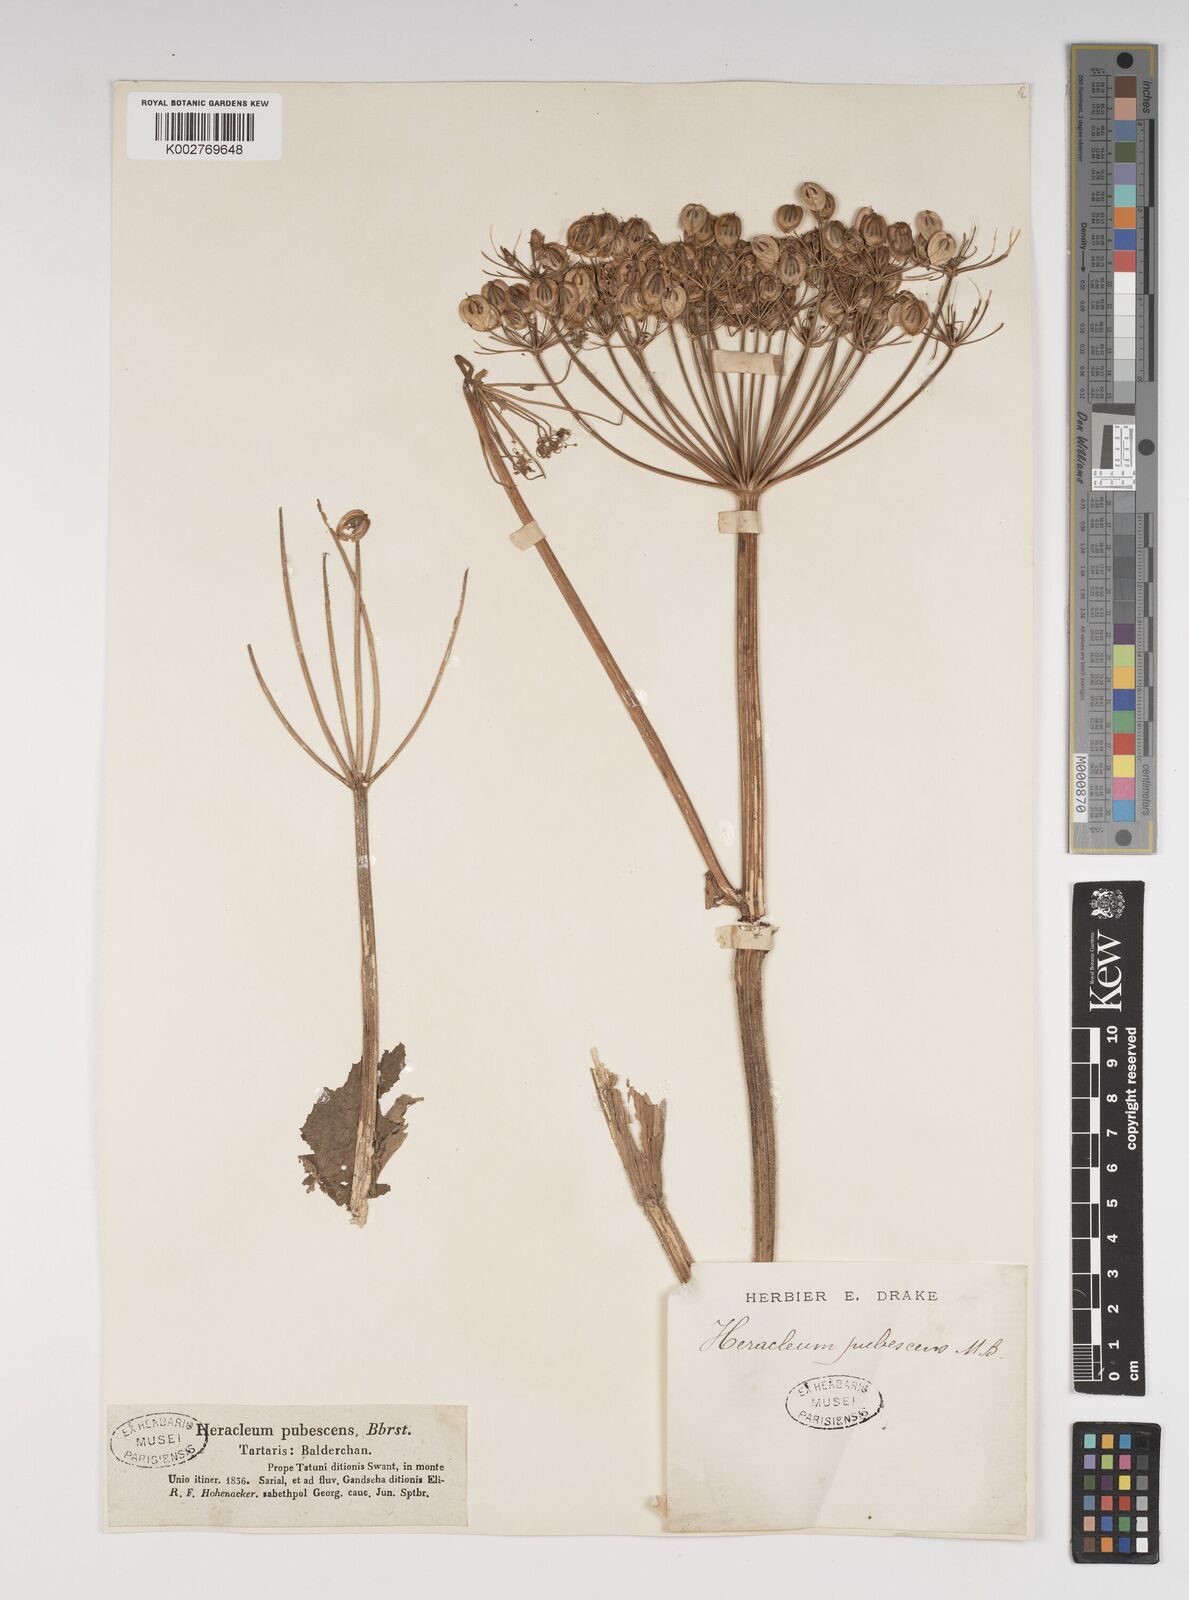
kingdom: Plantae
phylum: Tracheophyta
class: Magnoliopsida
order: Apiales
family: Apiaceae
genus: Heracleum
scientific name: Heracleum pubescens
